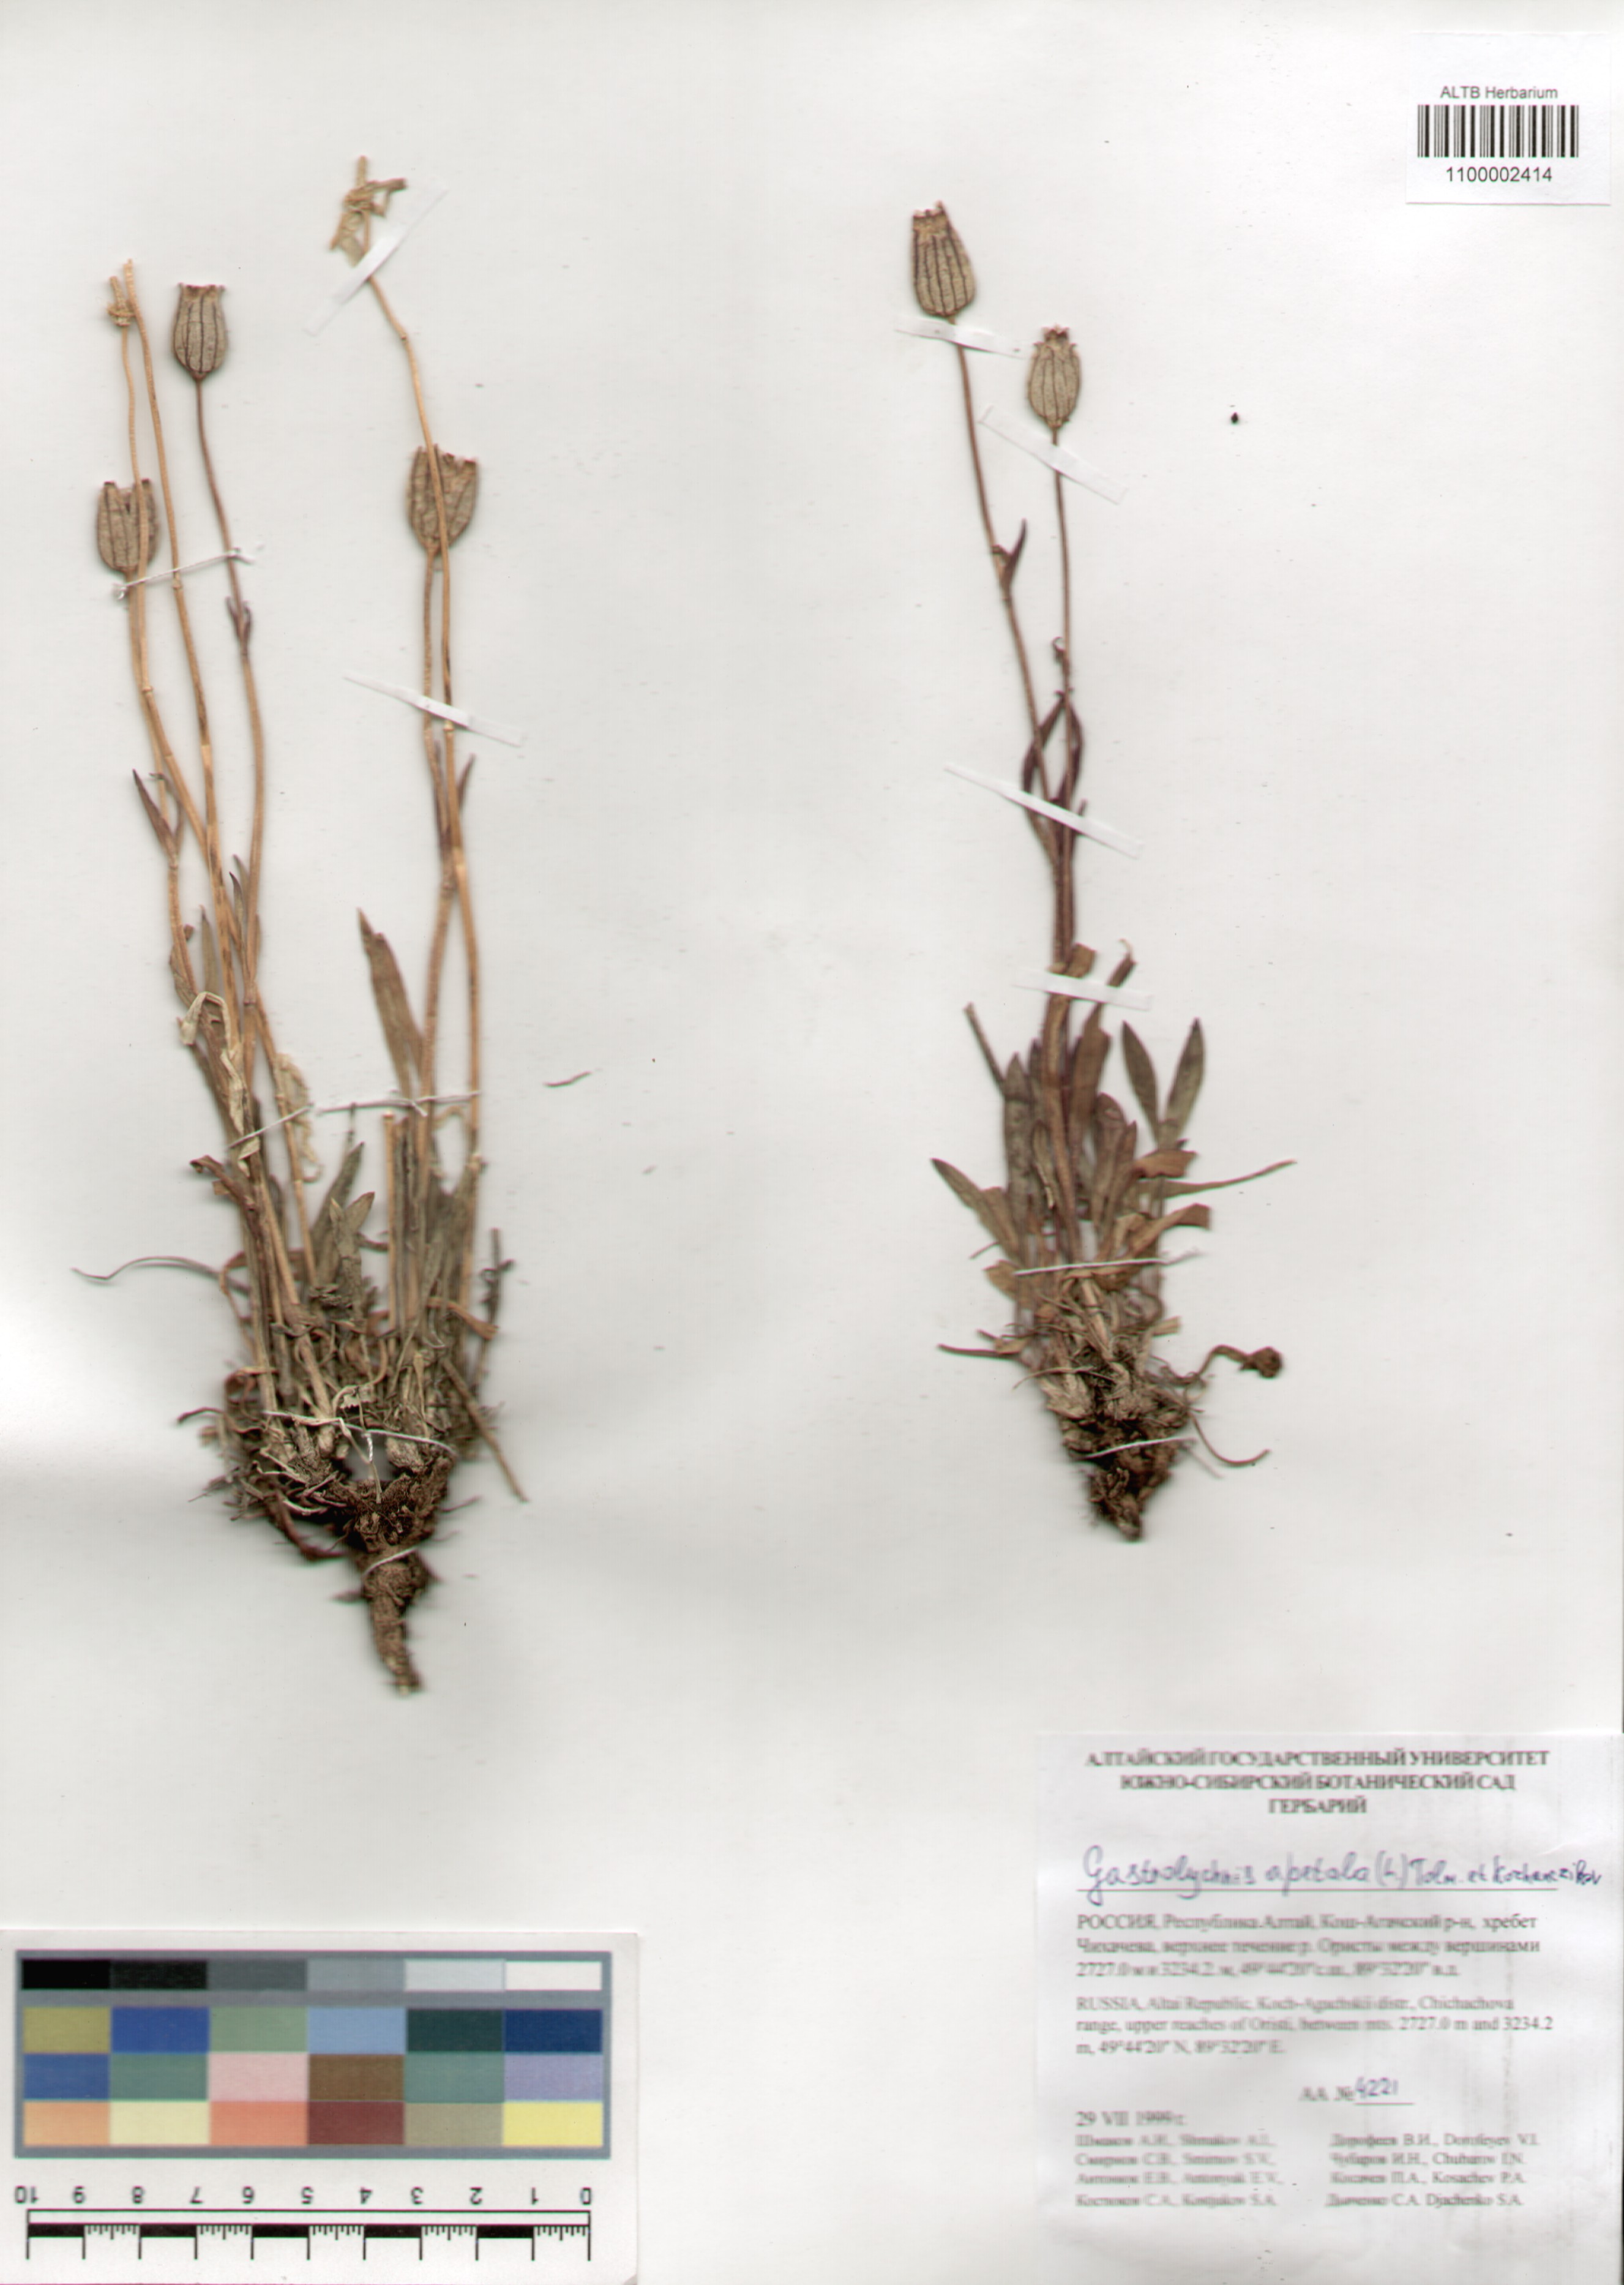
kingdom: Plantae
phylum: Tracheophyta
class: Magnoliopsida
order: Caryophyllales
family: Caryophyllaceae
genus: Silene
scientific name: Silene wahlbergella
